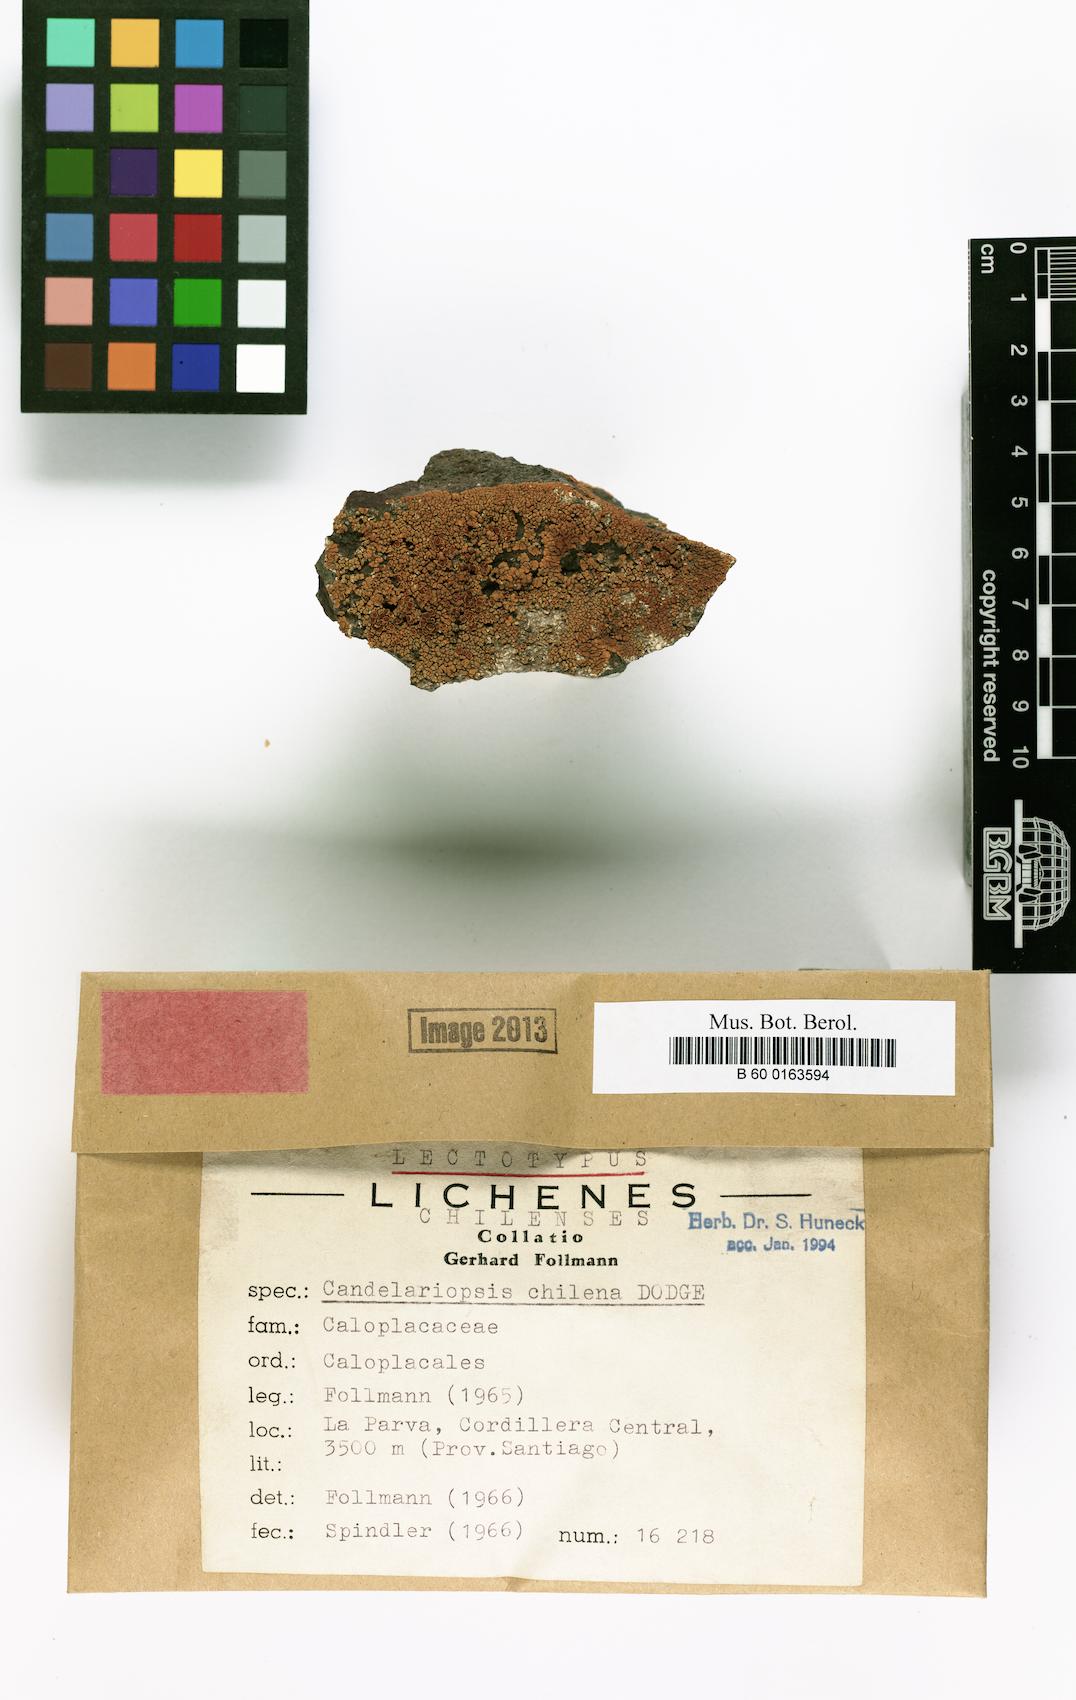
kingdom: Fungi
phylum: Ascomycota
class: Lecanoromycetes
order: Teloschistales
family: Teloschistaceae
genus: Caloplaca
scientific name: Caloplaca
